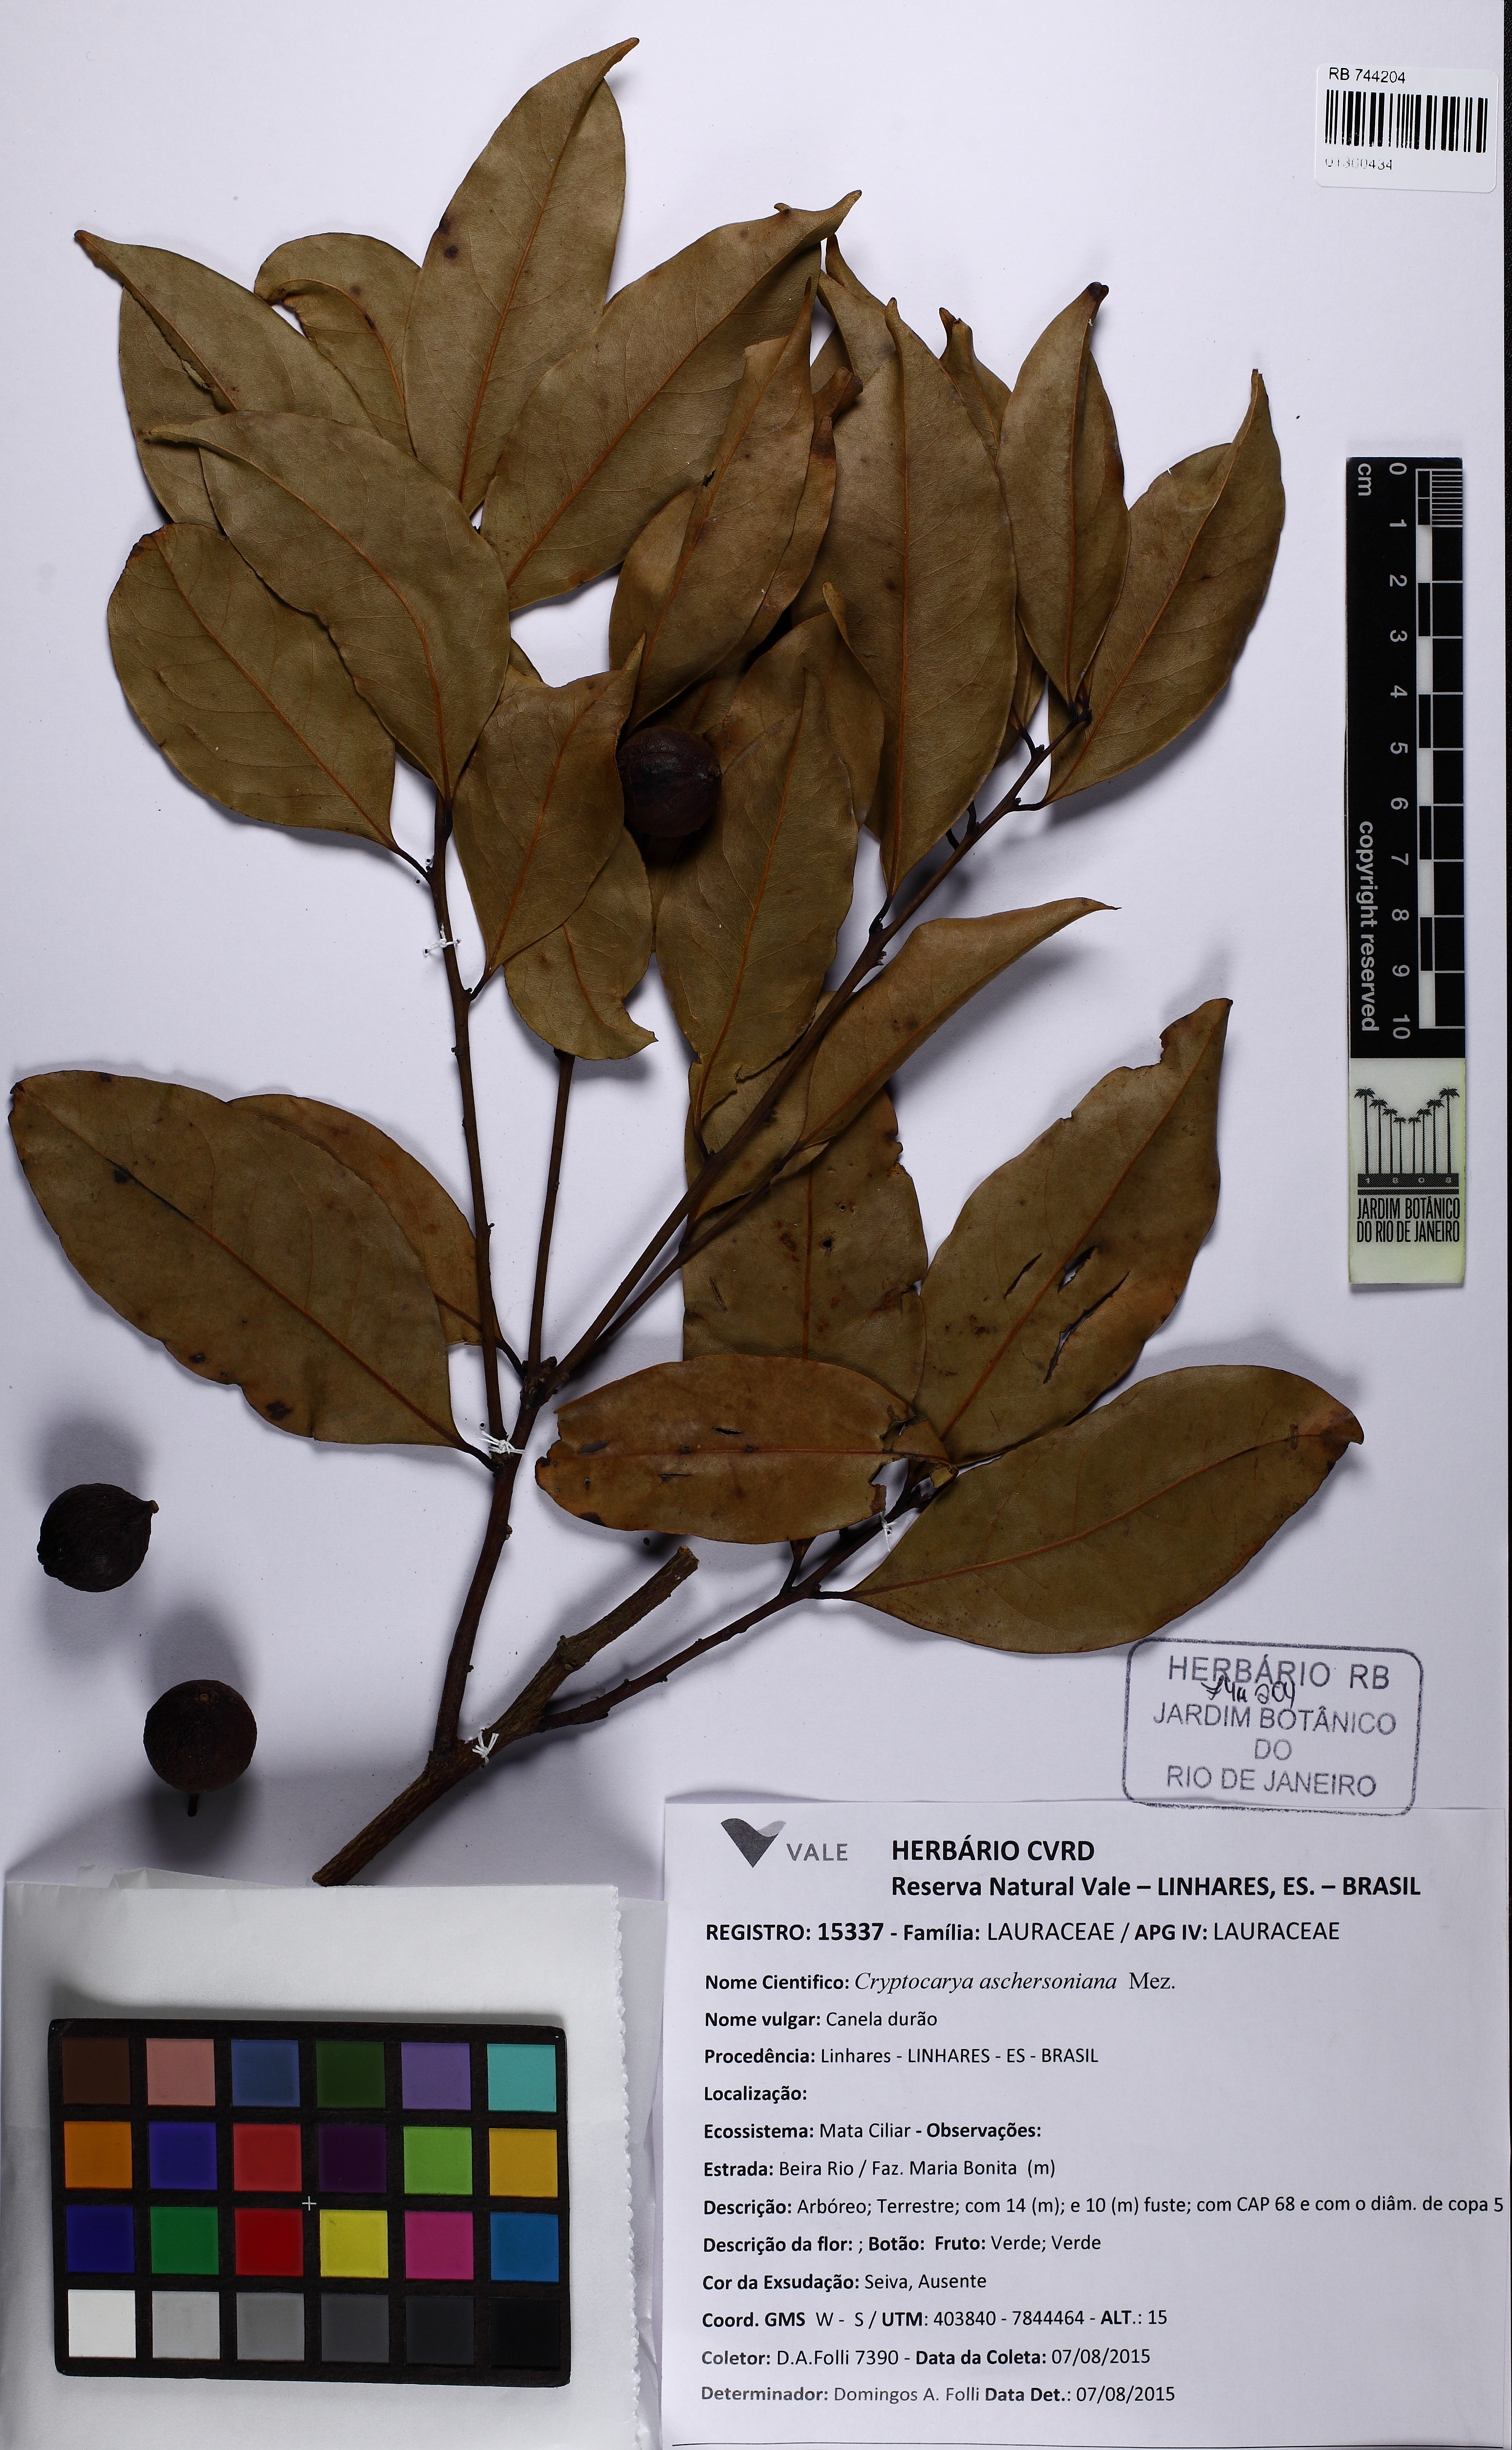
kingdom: Plantae
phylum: Tracheophyta
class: Magnoliopsida
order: Laurales
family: Lauraceae
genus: Cryptocarya
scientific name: Cryptocarya aschersoniana
